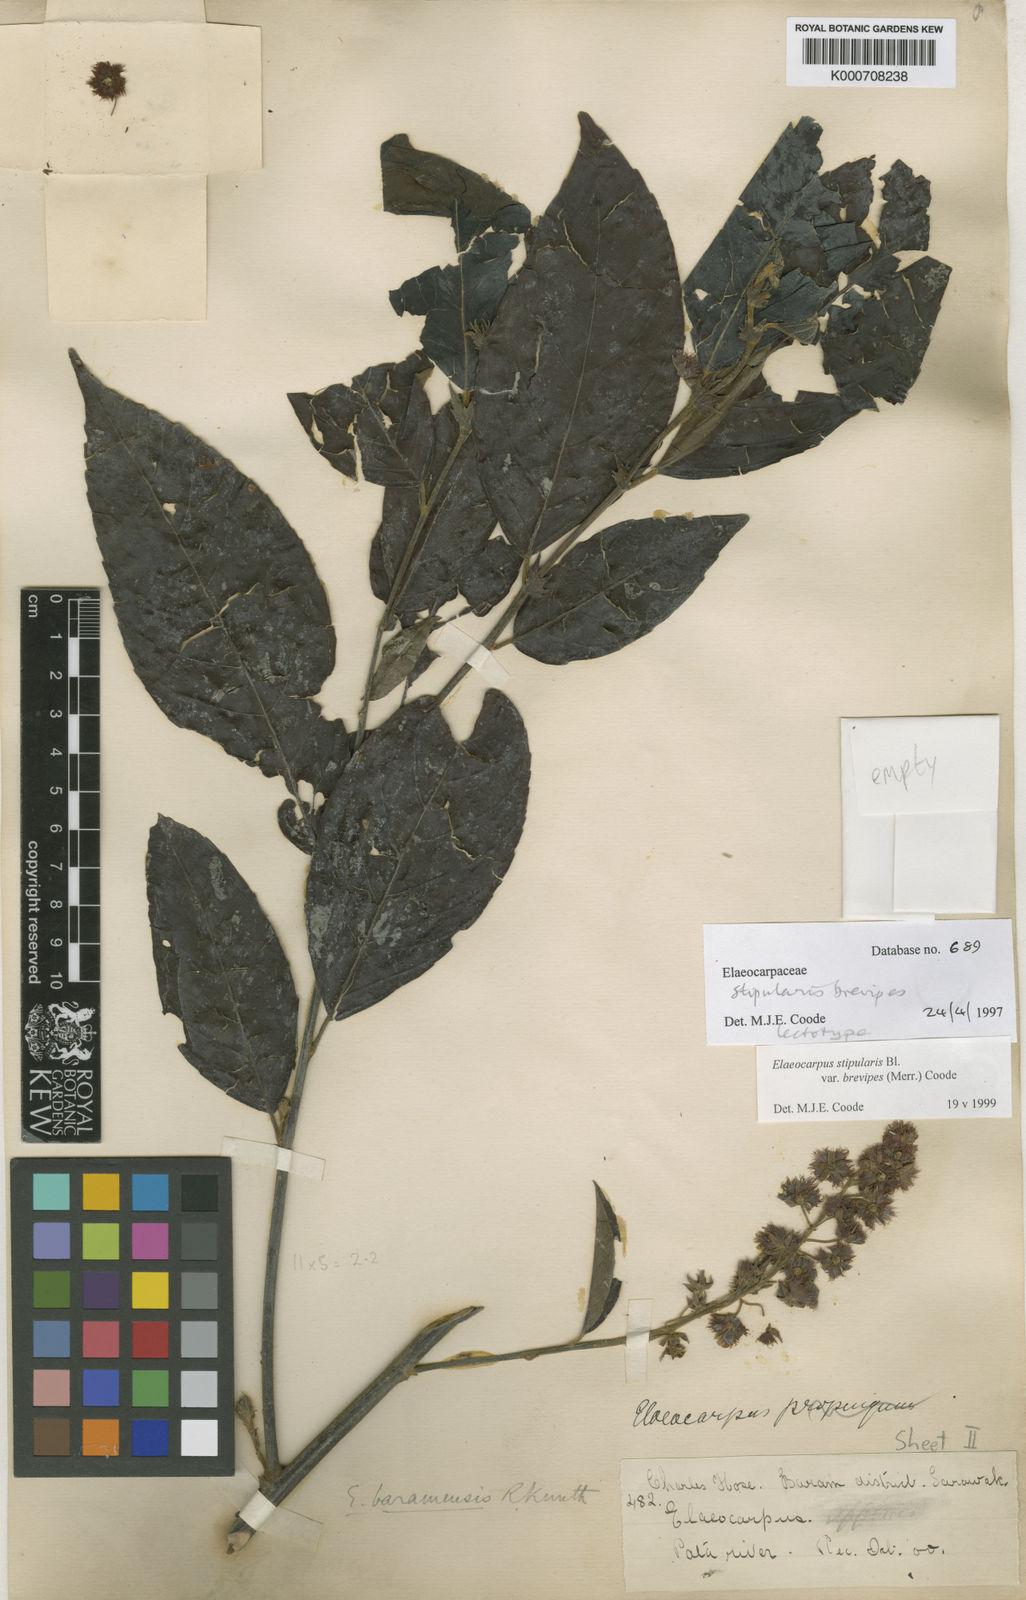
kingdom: Plantae
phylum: Tracheophyta
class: Magnoliopsida
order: Oxalidales
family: Elaeocarpaceae
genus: Elaeocarpus
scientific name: Elaeocarpus stipularis
